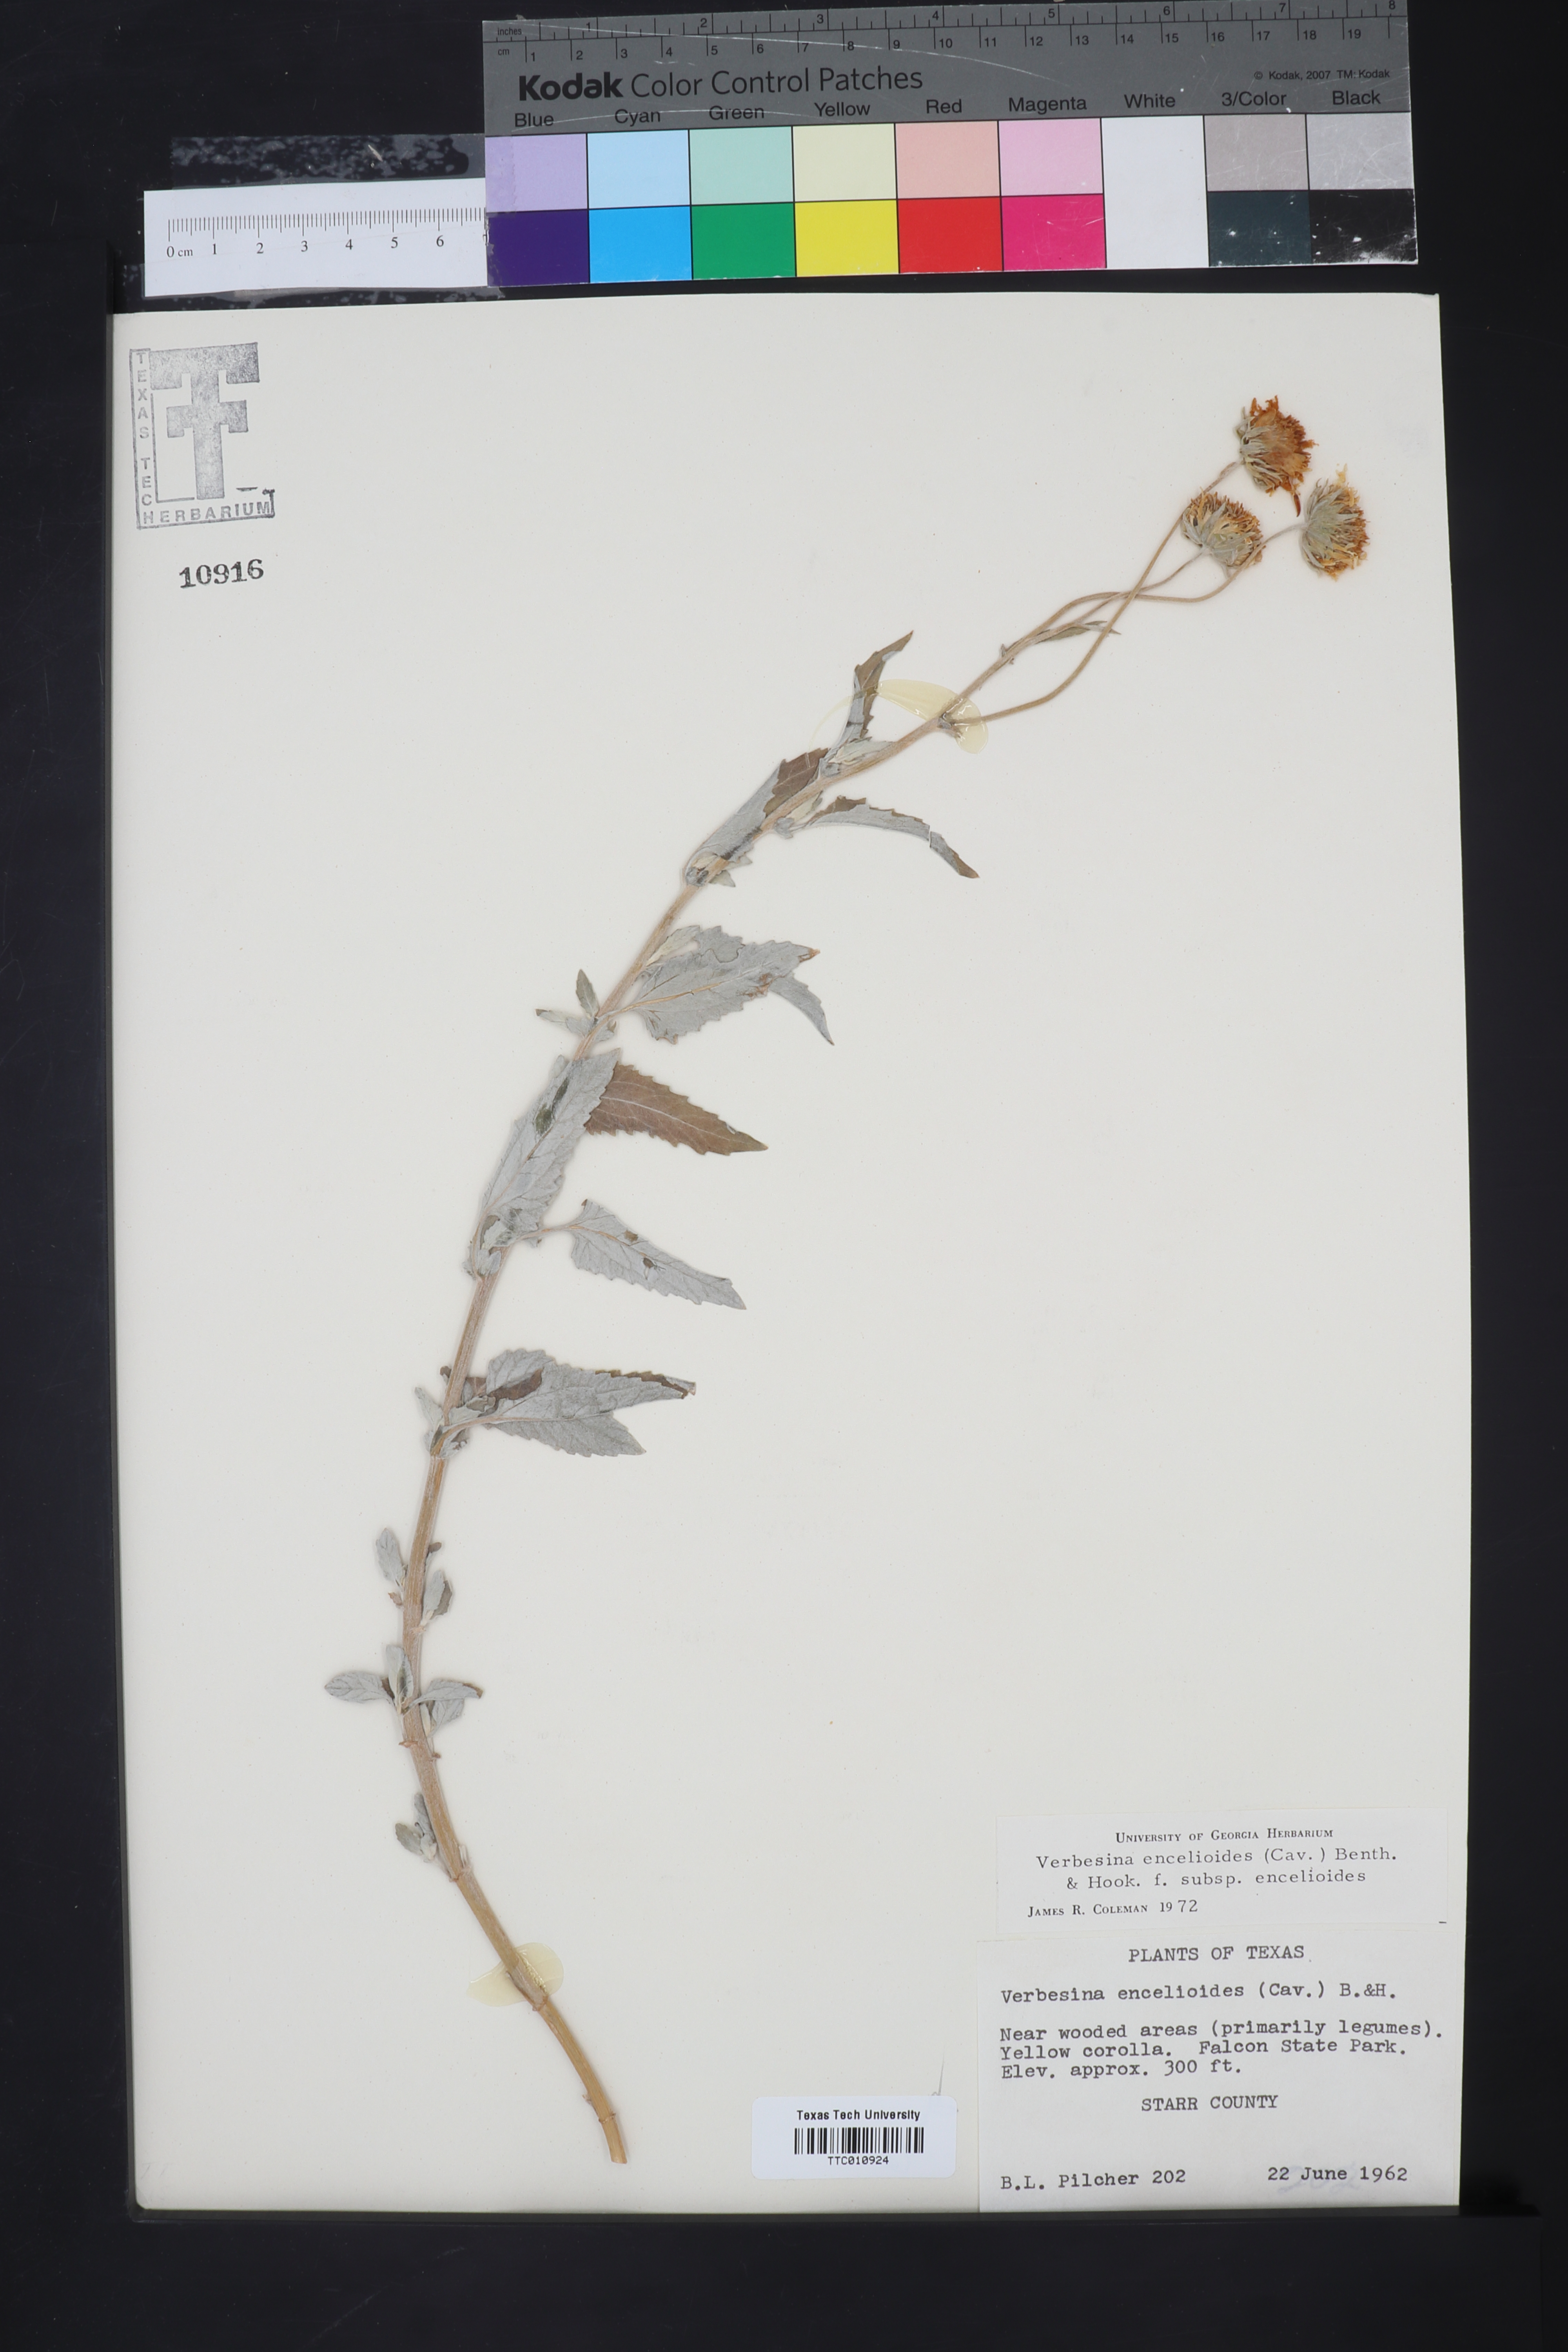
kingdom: Plantae
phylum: Tracheophyta
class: Magnoliopsida
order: Asterales
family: Asteraceae
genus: Verbesina
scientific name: Verbesina encelioides
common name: Golden crownbeard
